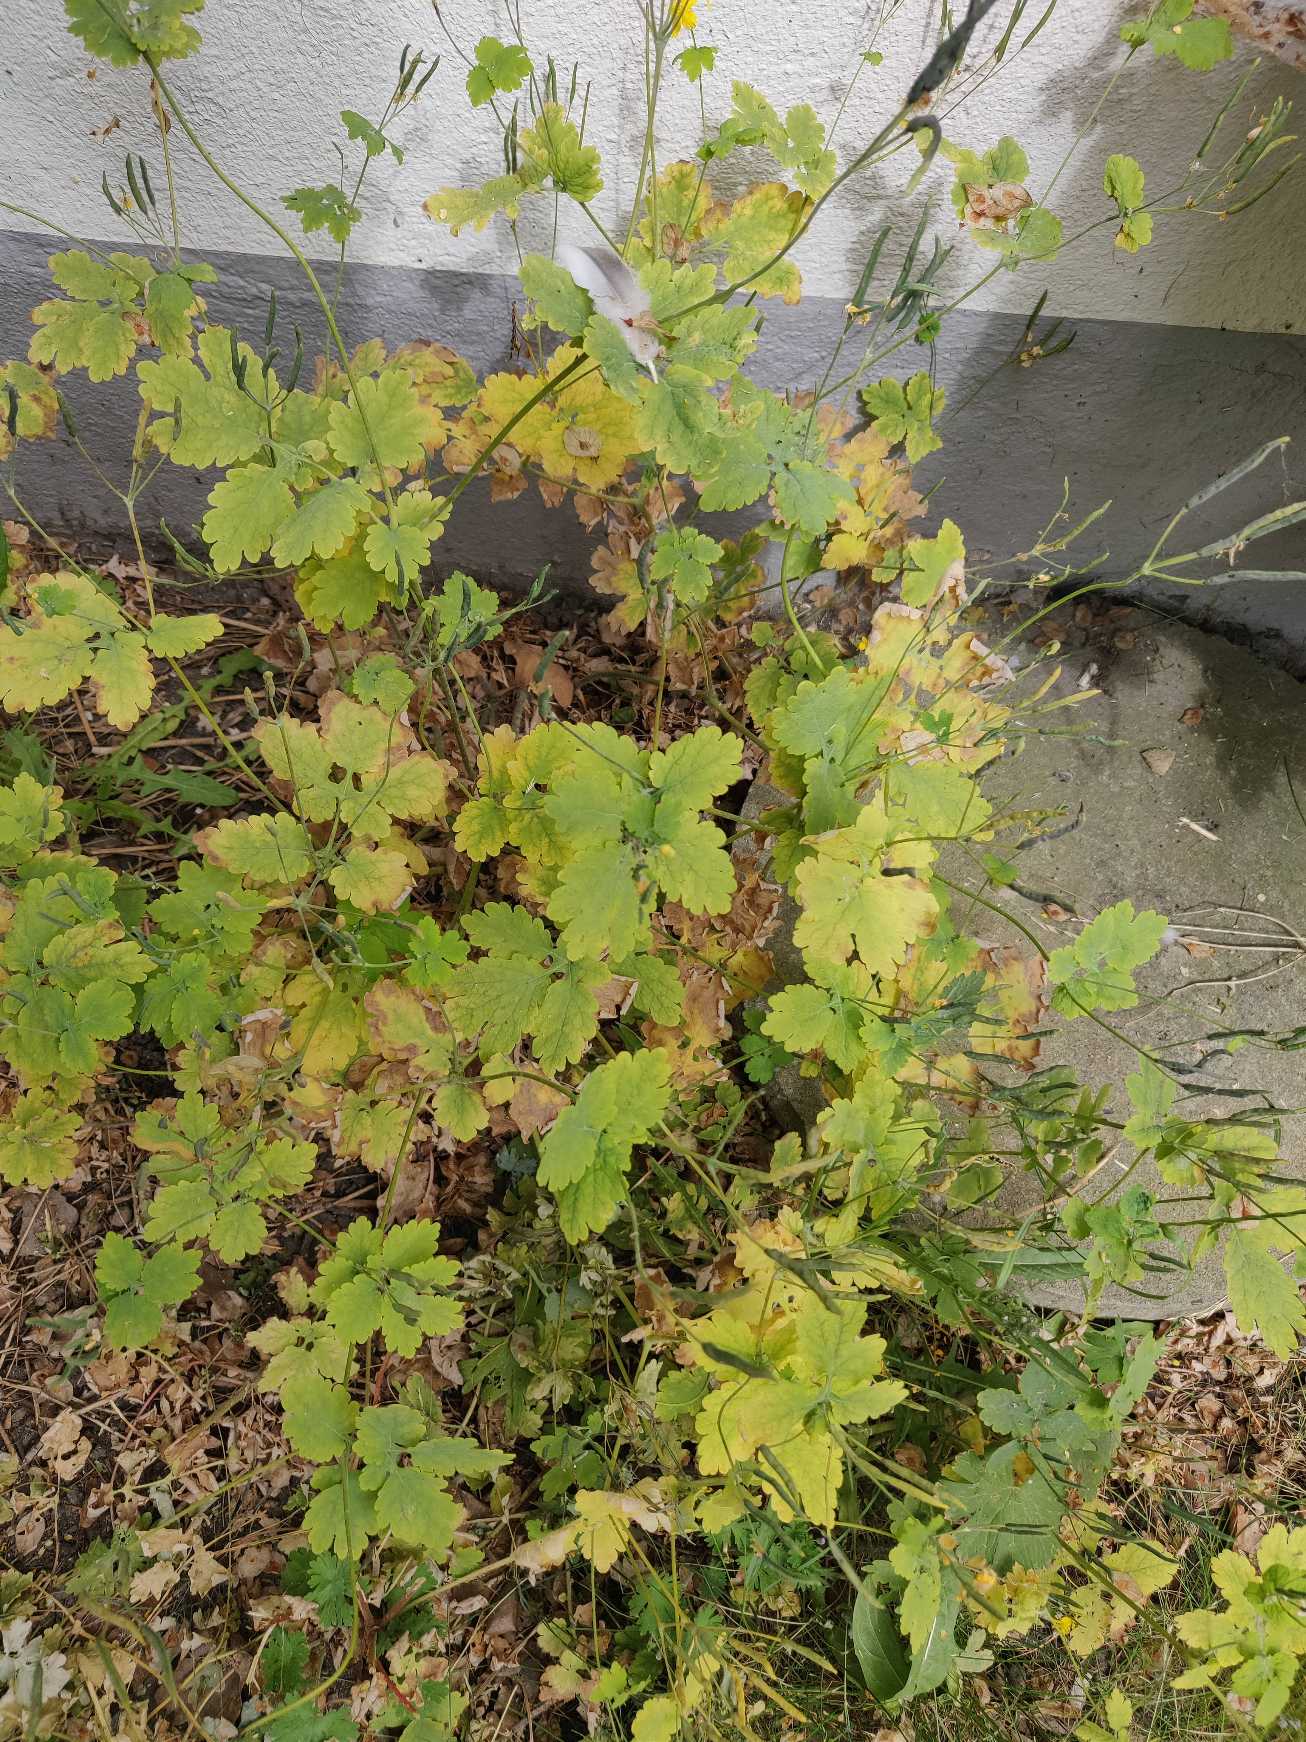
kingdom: Plantae
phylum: Tracheophyta
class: Magnoliopsida
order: Ranunculales
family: Papaveraceae
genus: Chelidonium
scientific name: Chelidonium majus
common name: Svaleurt
